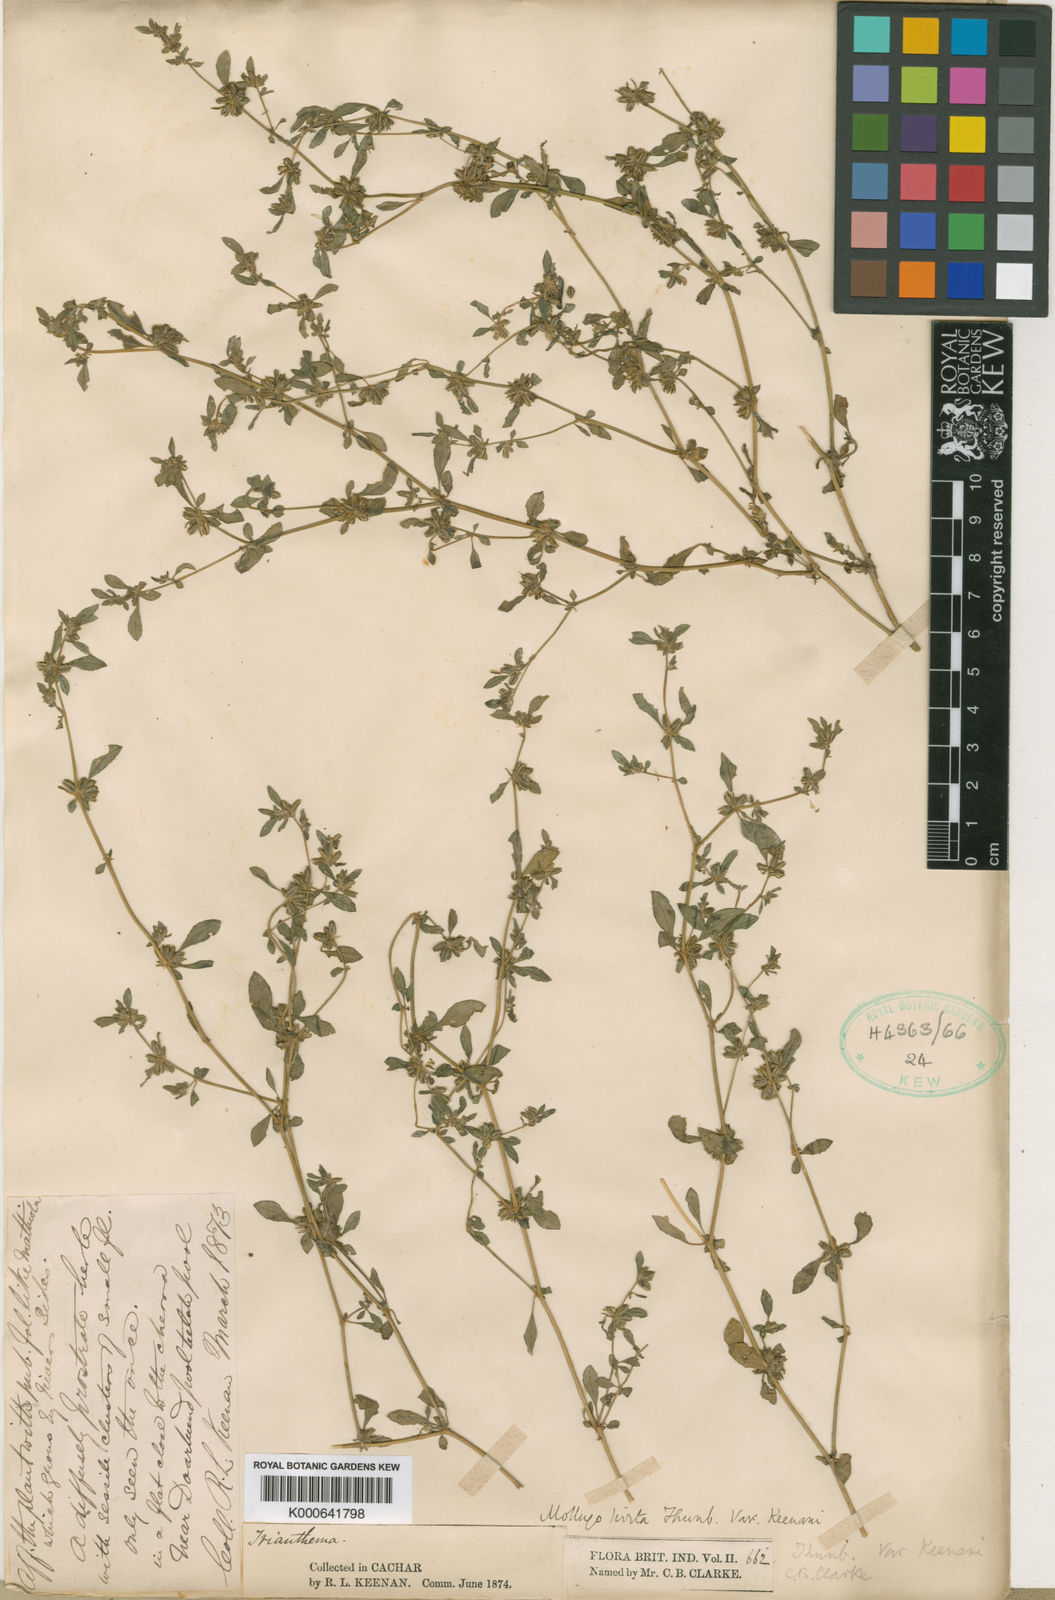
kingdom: Plantae
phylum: Tracheophyta
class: Magnoliopsida
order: Caryophyllales
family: Molluginaceae
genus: Glinus
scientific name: Glinus
